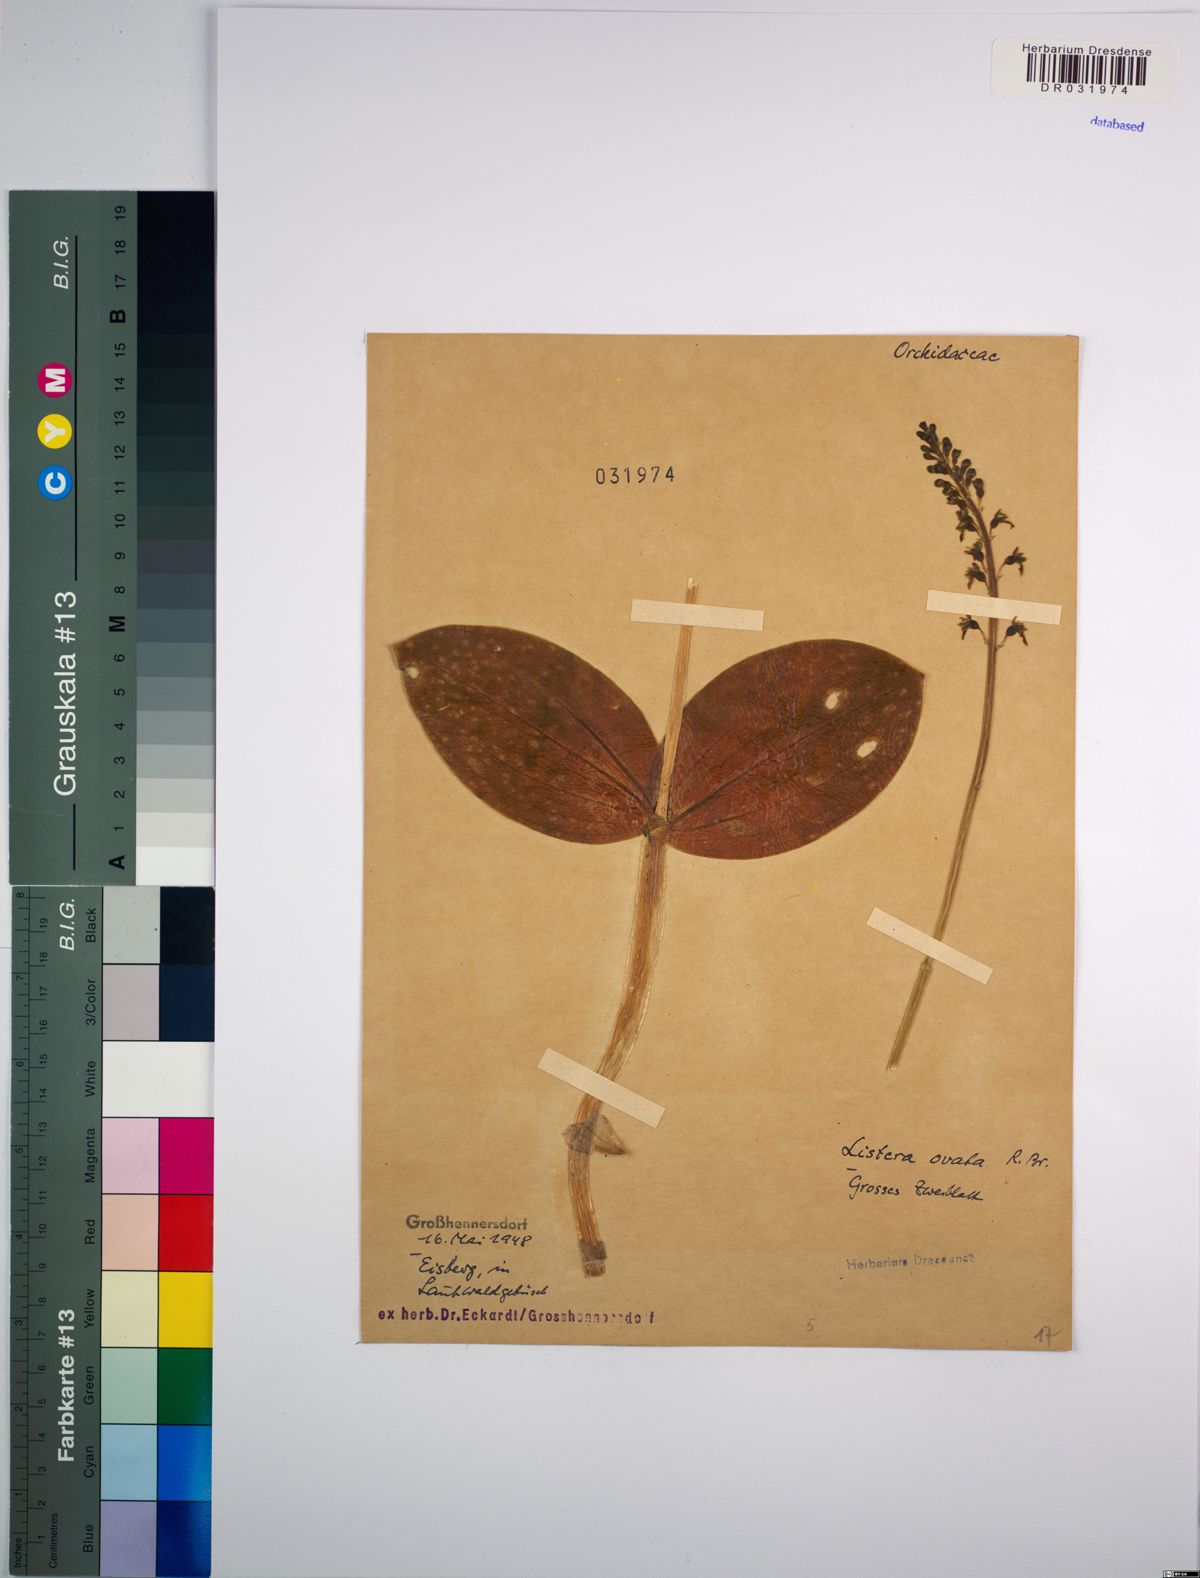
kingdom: Plantae
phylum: Tracheophyta
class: Liliopsida
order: Asparagales
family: Orchidaceae
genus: Neottia
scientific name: Neottia ovata
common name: Common twayblade
